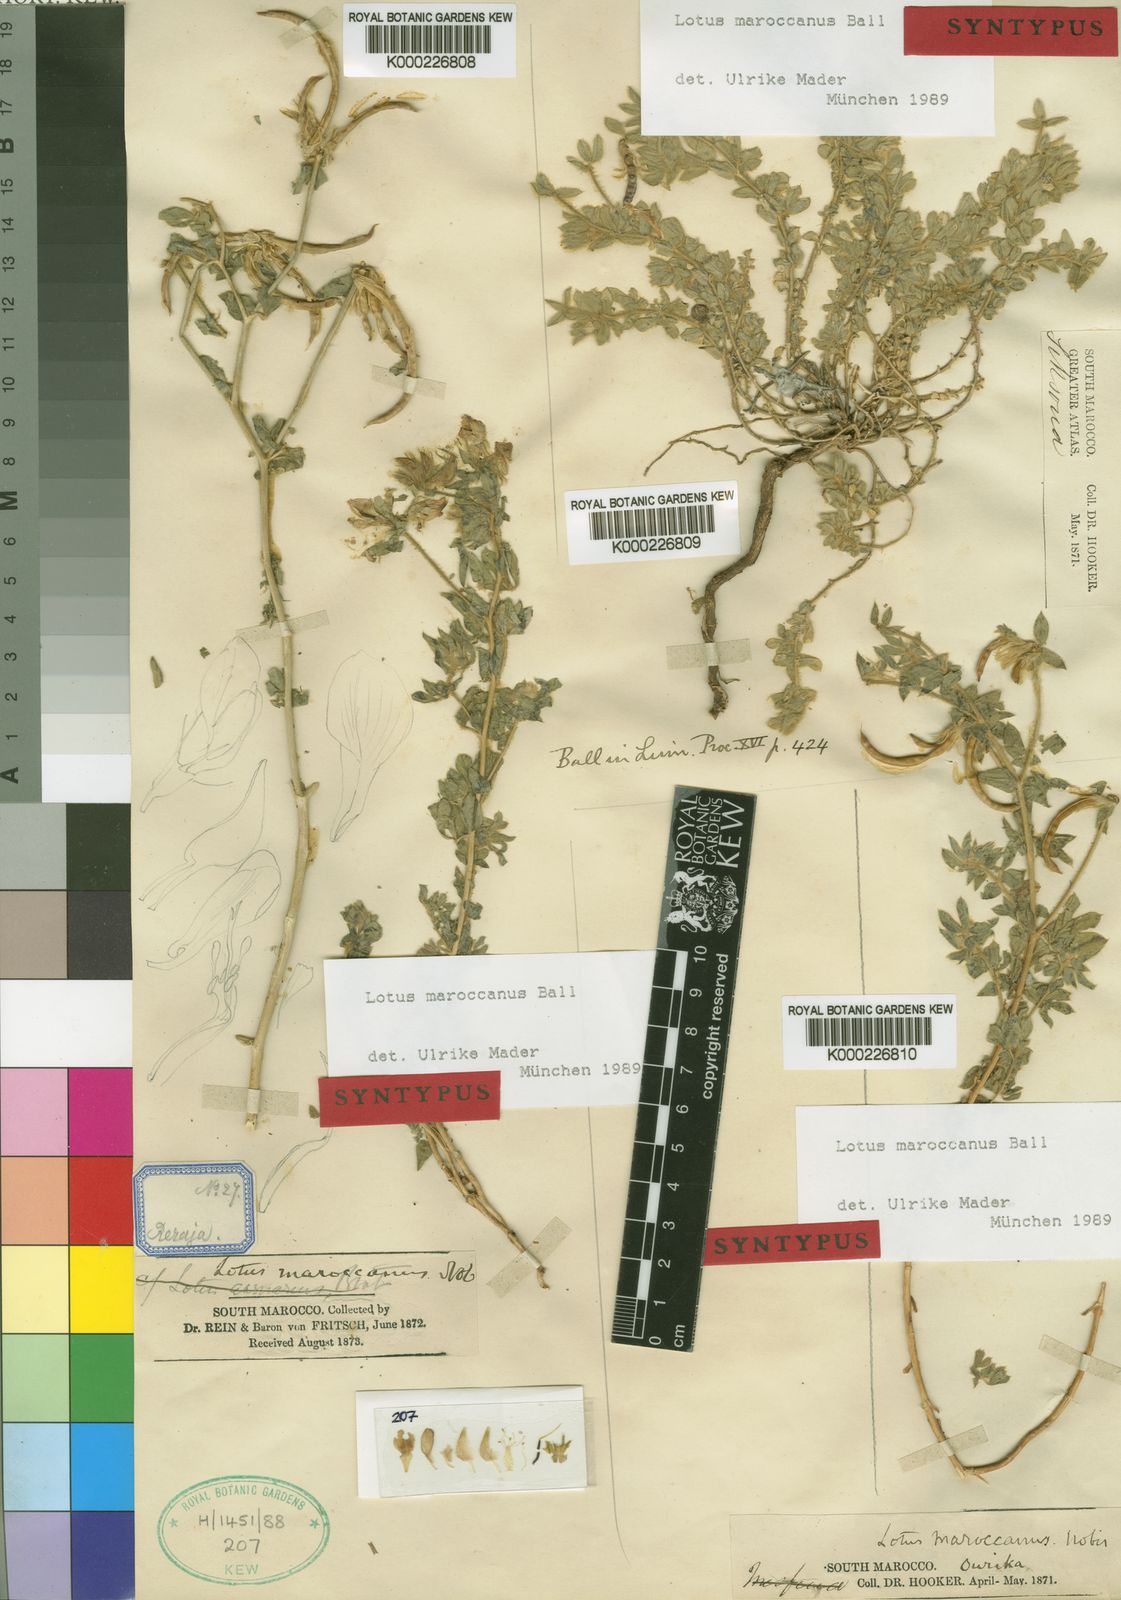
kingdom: Plantae
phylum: Tracheophyta
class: Magnoliopsida
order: Fabales
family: Fabaceae
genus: Lotus
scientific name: Lotus maroccanus
